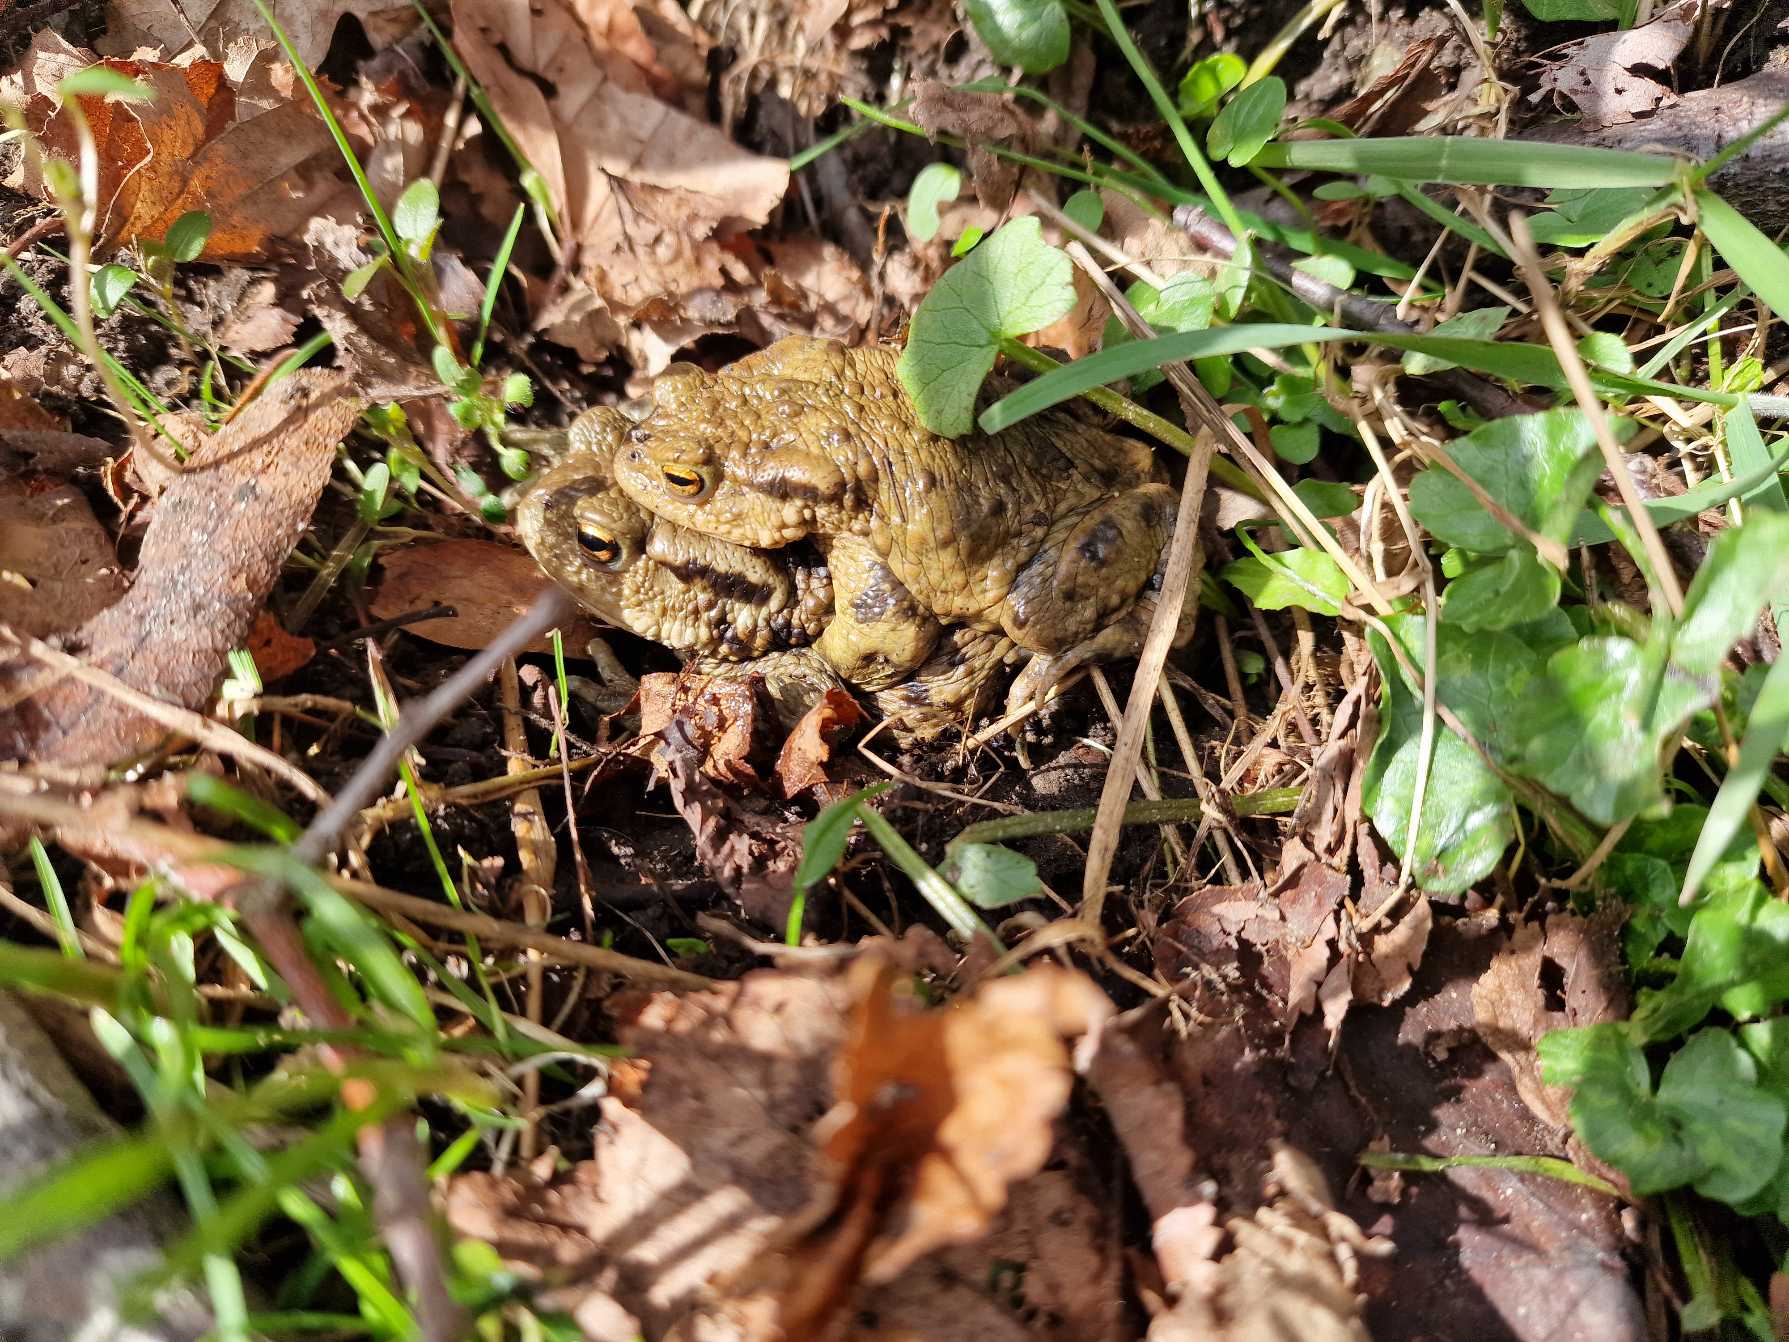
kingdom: Animalia
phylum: Chordata
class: Amphibia
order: Anura
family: Bufonidae
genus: Bufo
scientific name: Bufo bufo
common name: Skrubtudse
